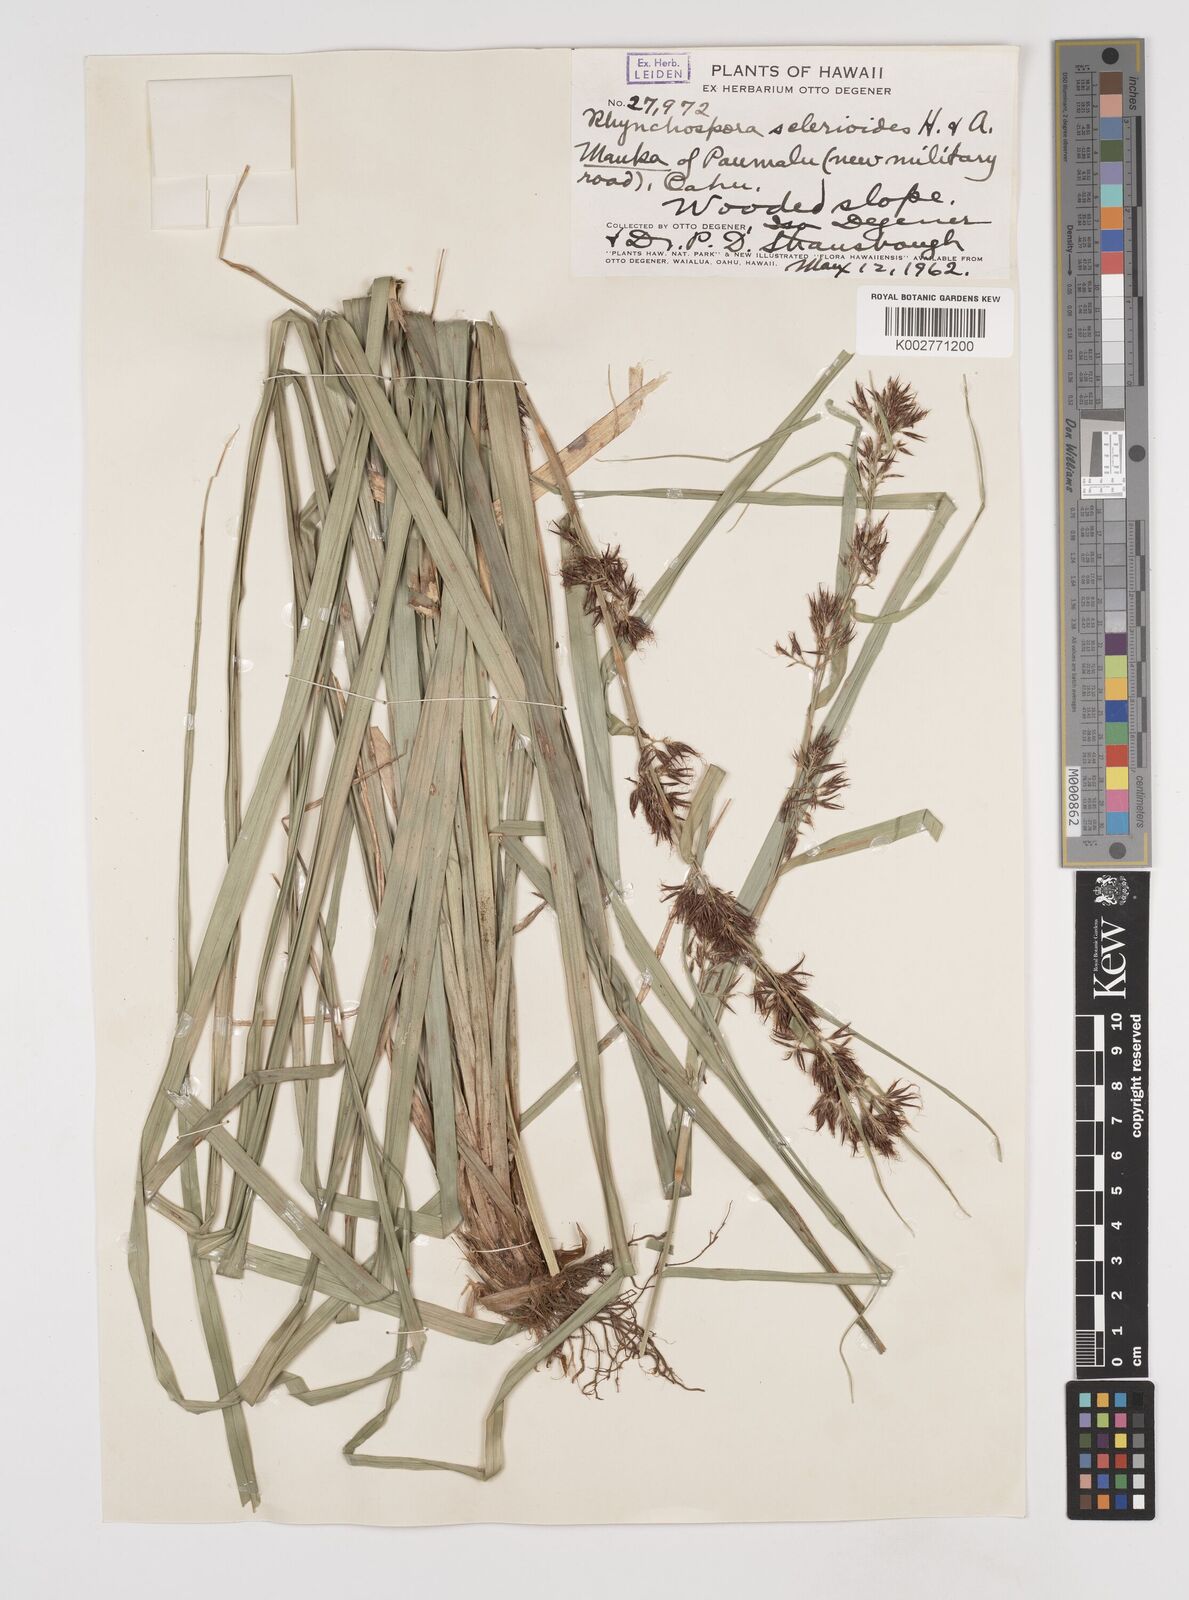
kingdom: Plantae
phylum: Tracheophyta
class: Liliopsida
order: Poales
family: Cyperaceae
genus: Rhynchospora
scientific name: Rhynchospora sclerioides
